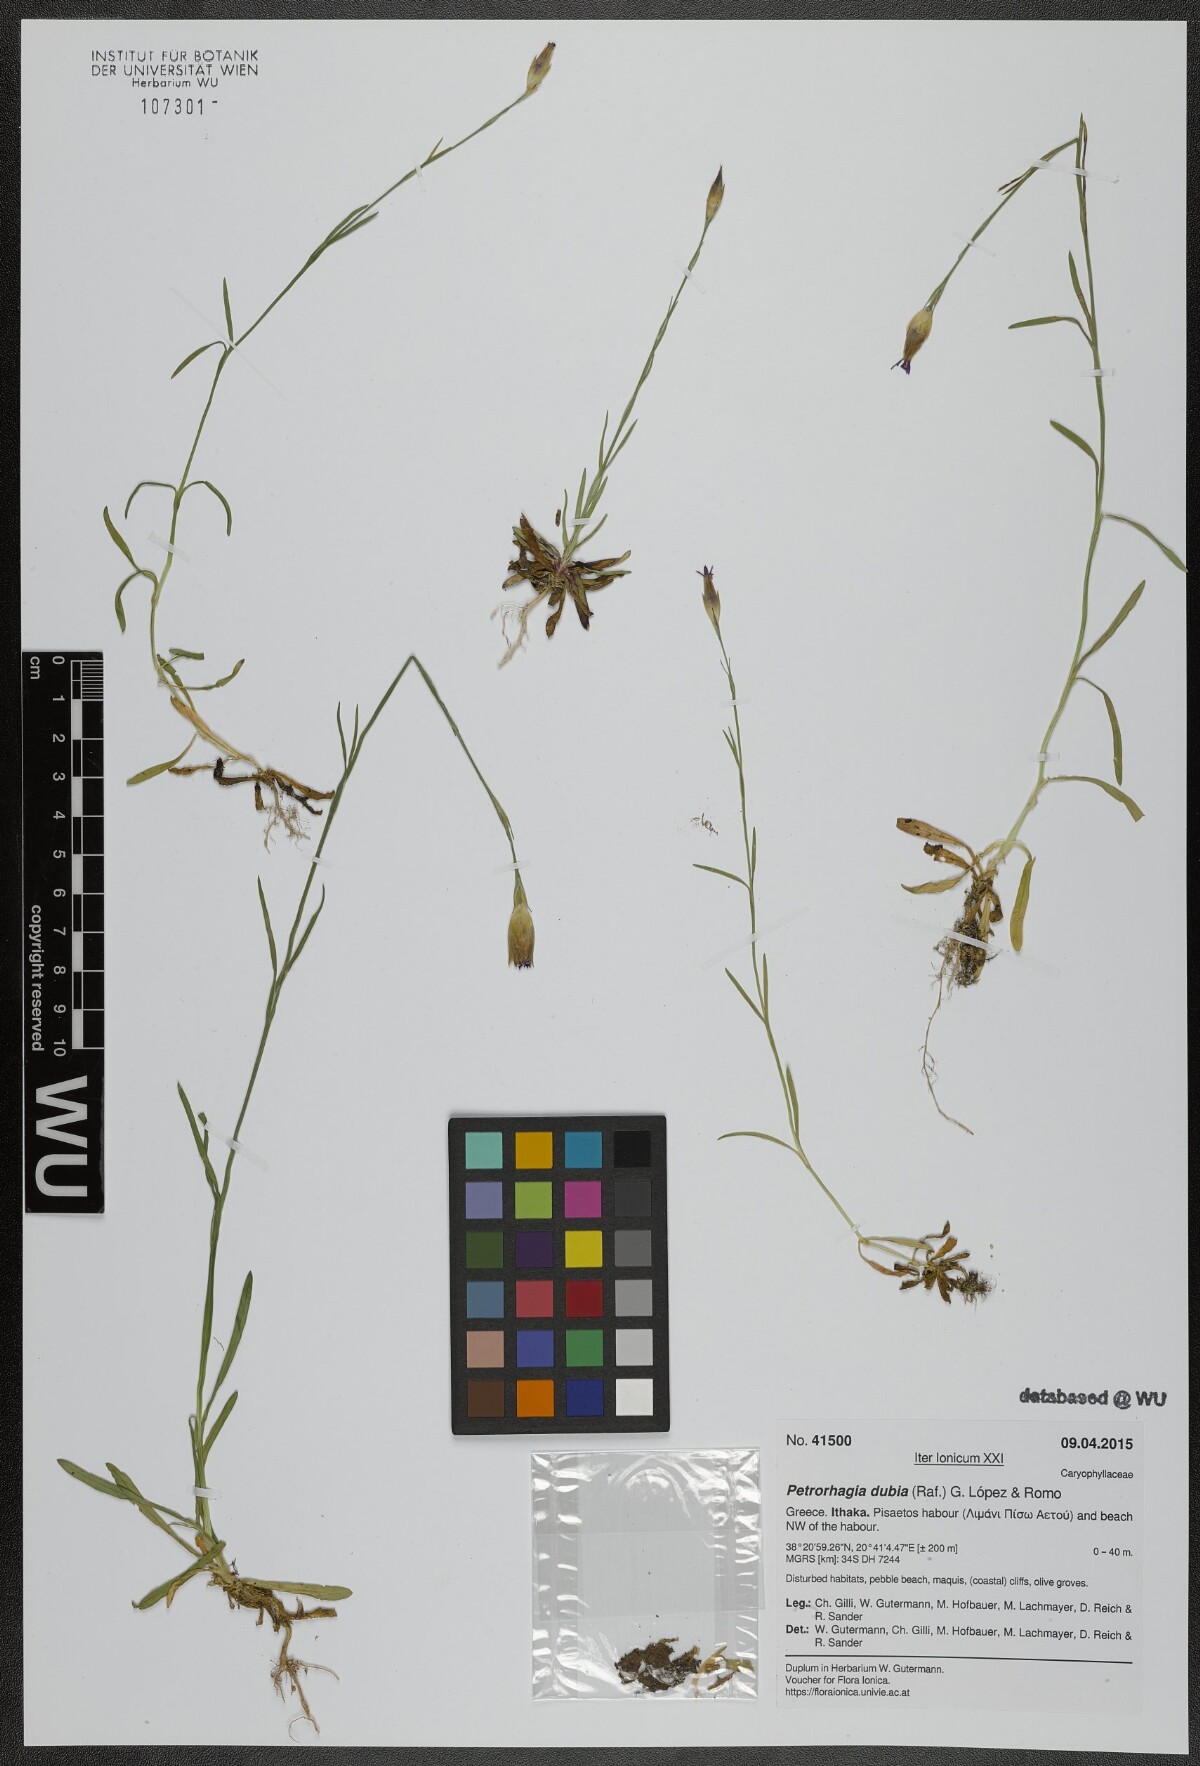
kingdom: Plantae
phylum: Tracheophyta
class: Magnoliopsida
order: Caryophyllales
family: Caryophyllaceae
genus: Petrorhagia
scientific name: Petrorhagia dubia
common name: Hairypink
